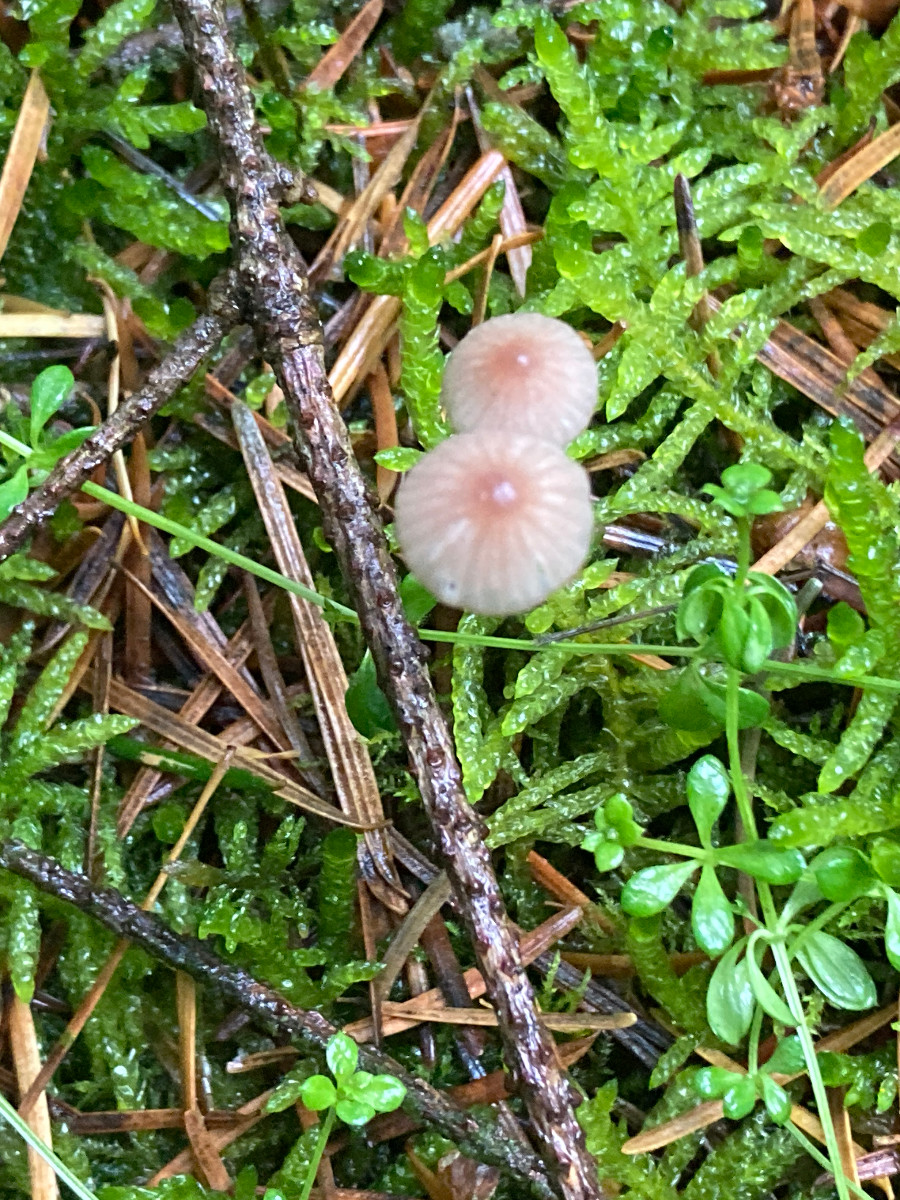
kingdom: Fungi
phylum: Basidiomycota
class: Agaricomycetes
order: Agaricales
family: Mycenaceae
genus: Mycena
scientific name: Mycena sanguinolenta
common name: rødmælket huesvamp
